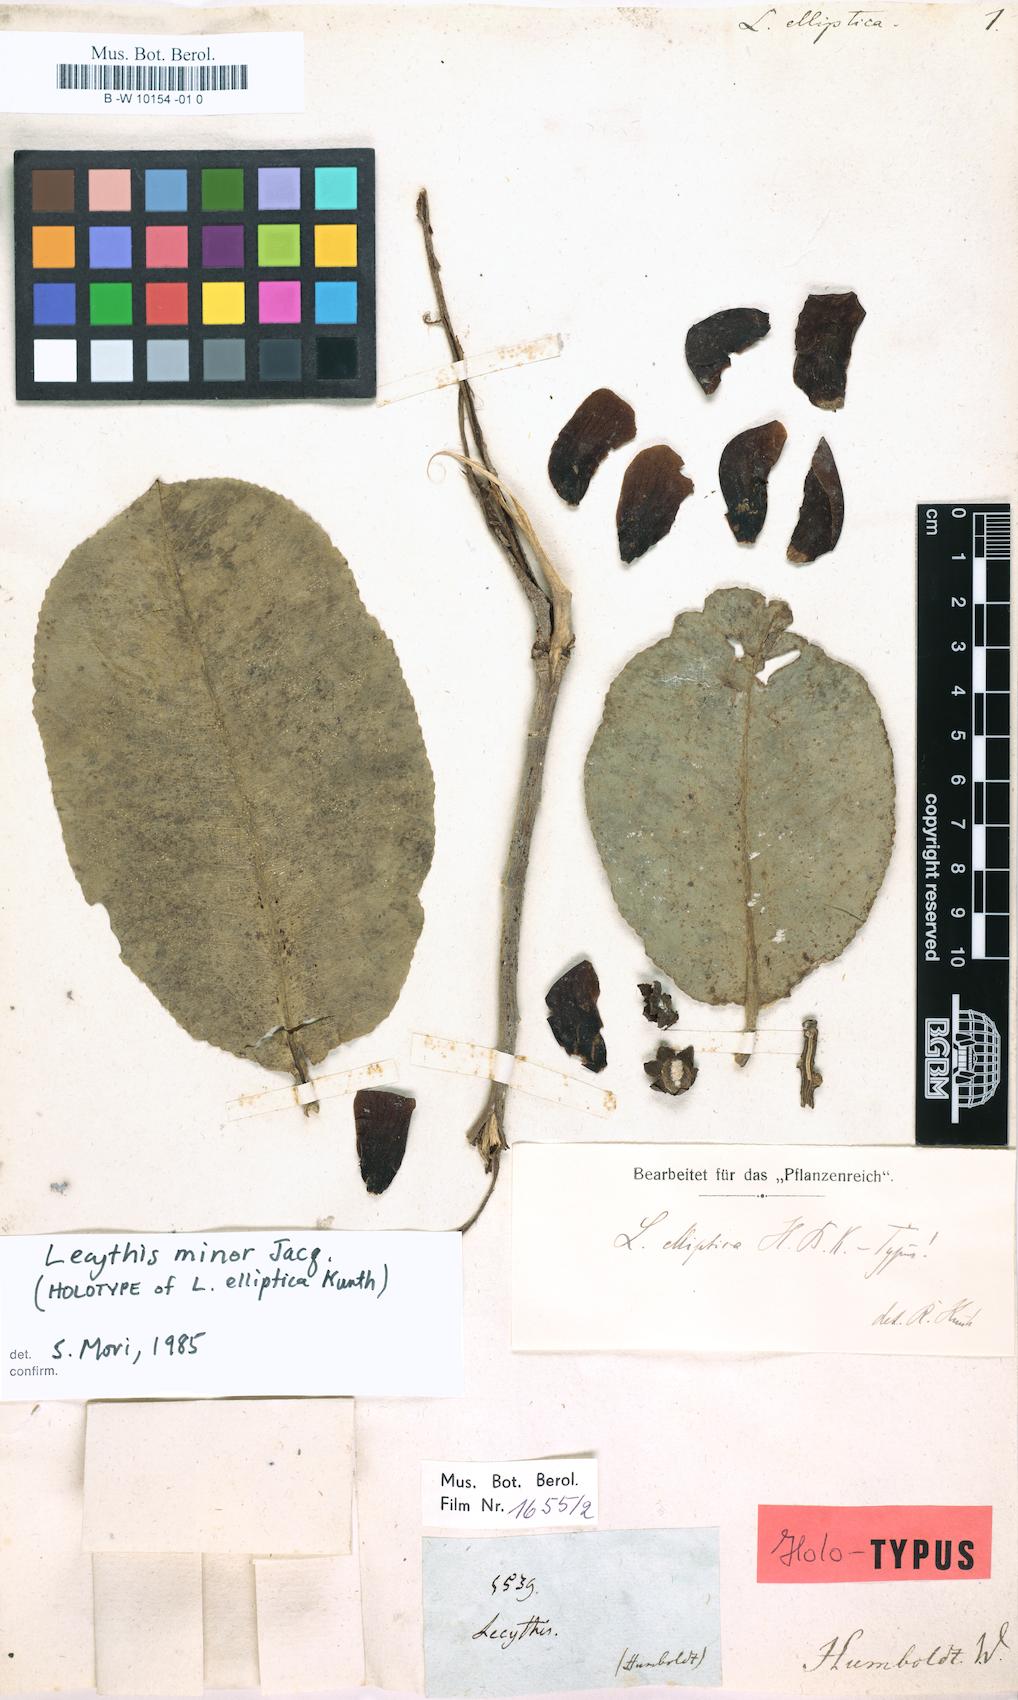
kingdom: Plantae
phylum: Tracheophyta
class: Magnoliopsida
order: Ericales
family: Lecythidaceae
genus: Lecythis
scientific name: Lecythis minor
